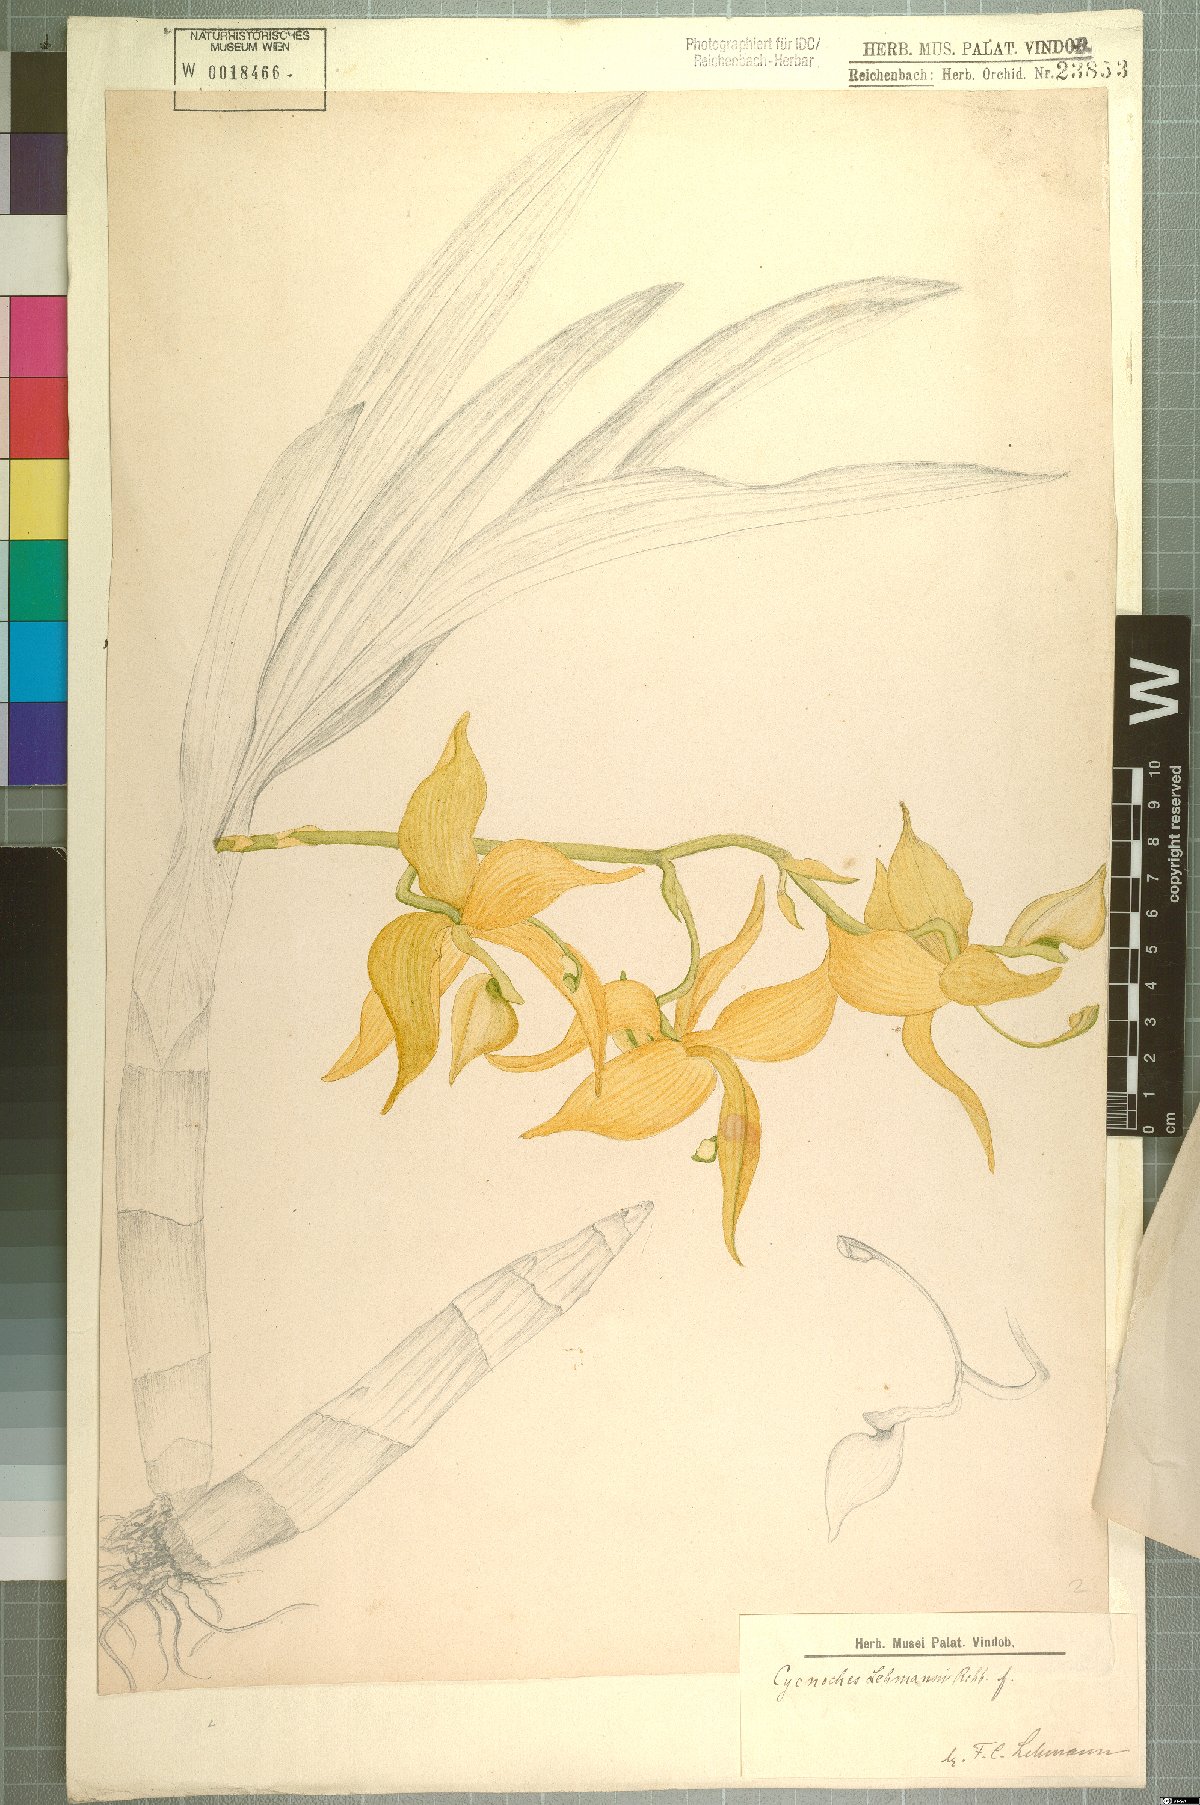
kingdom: Plantae
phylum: Tracheophyta
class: Liliopsida
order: Asparagales
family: Orchidaceae
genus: Cycnoches
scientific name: Cycnoches lehmannii
